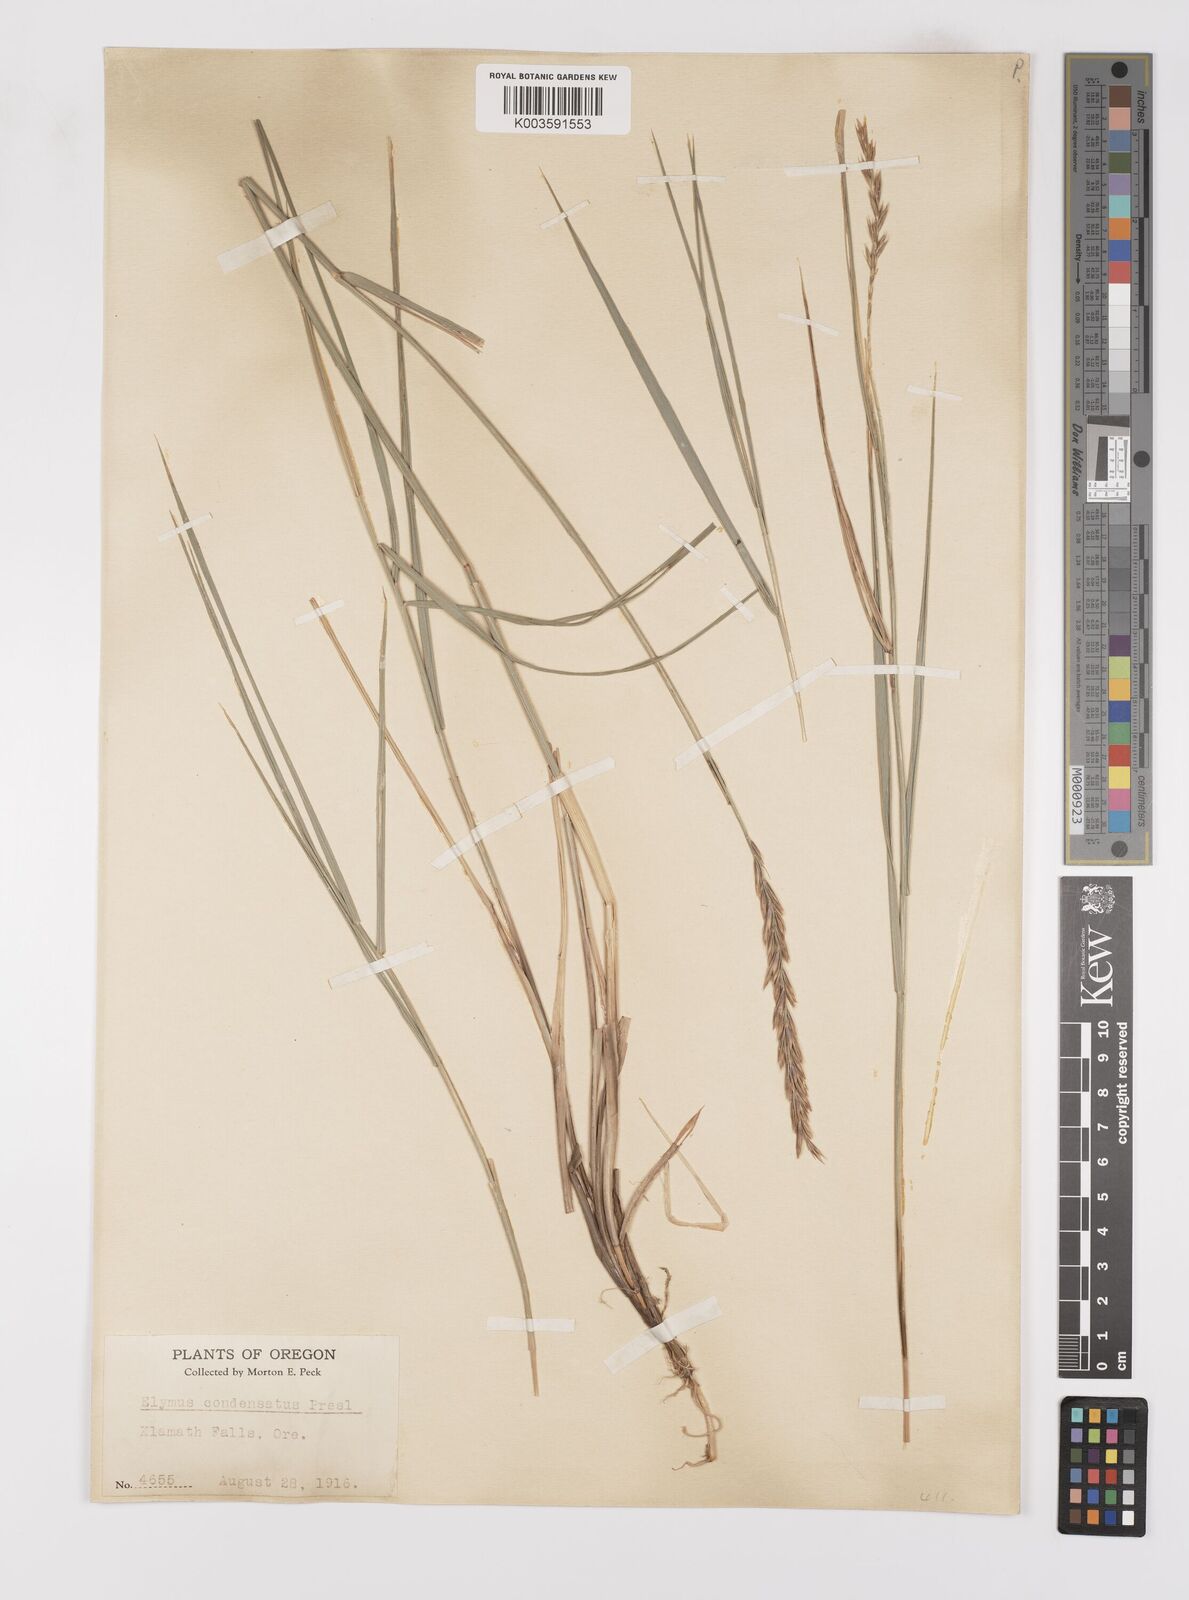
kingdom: Plantae
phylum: Tracheophyta
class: Liliopsida
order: Poales
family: Poaceae
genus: Leymus
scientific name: Leymus condensatus
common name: Giant wild rye
